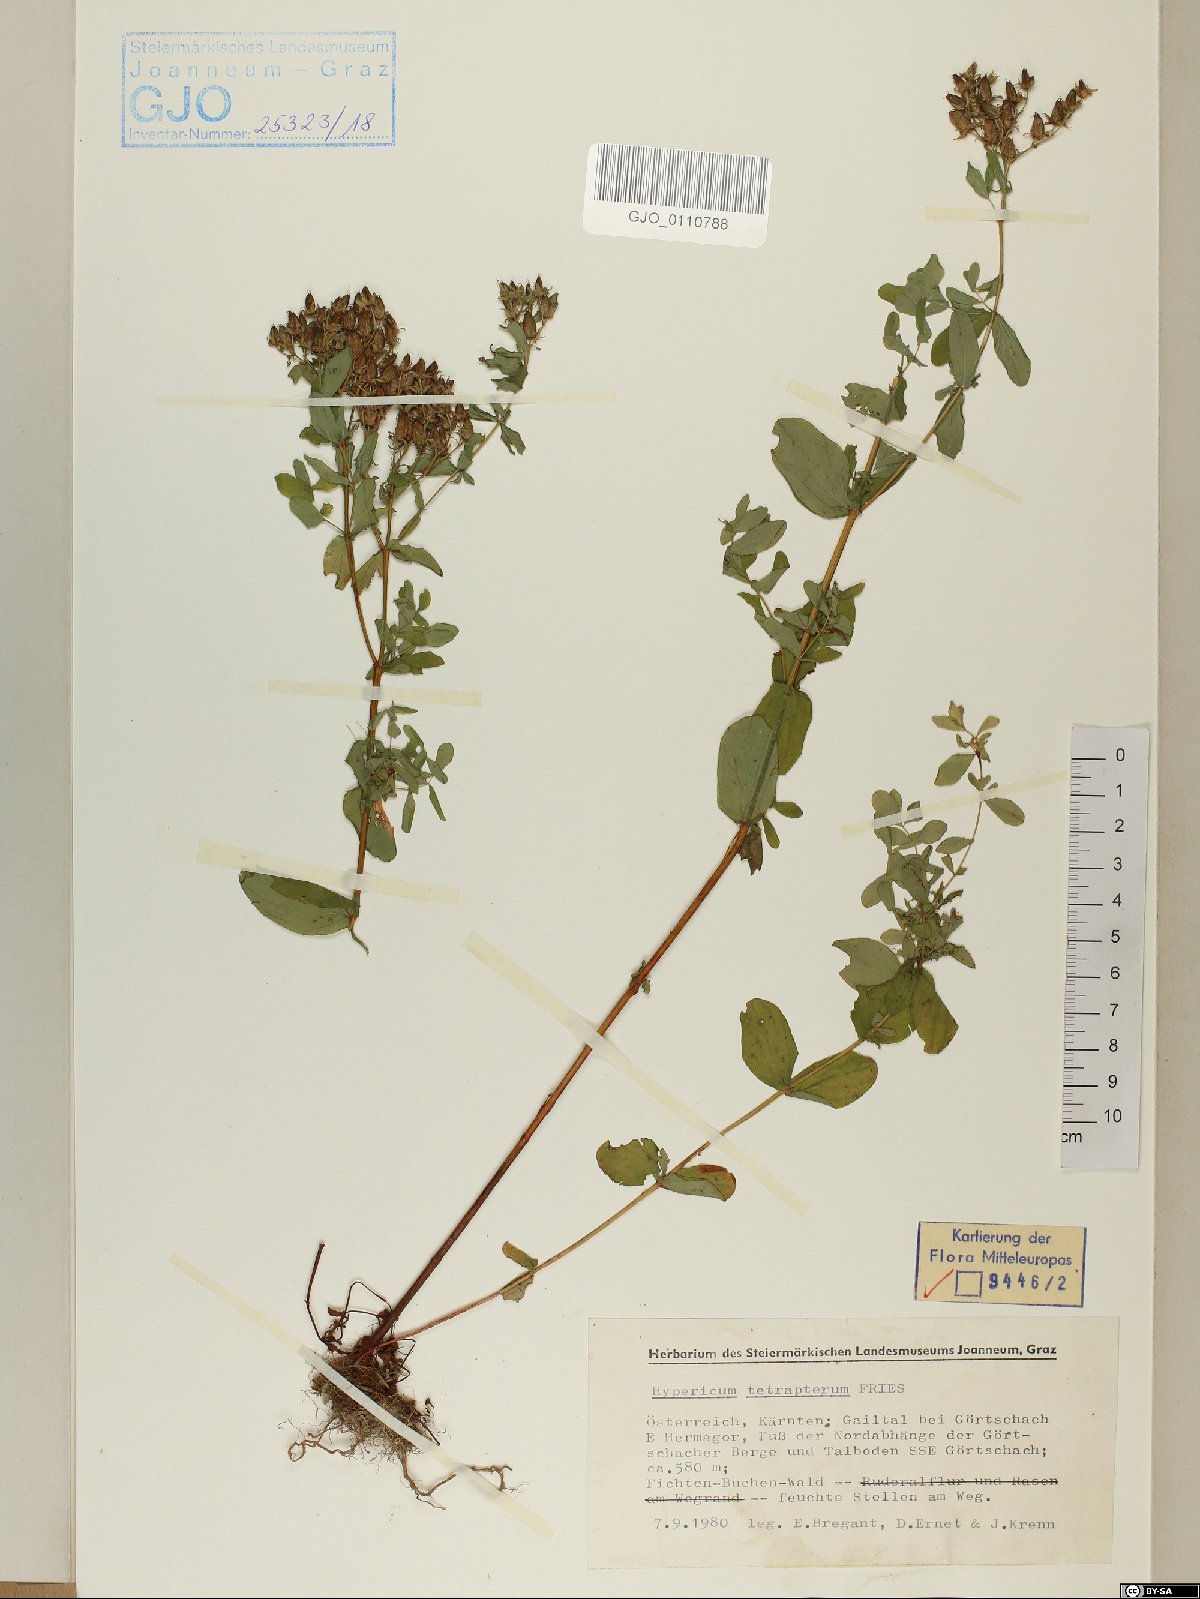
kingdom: Plantae
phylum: Tracheophyta
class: Magnoliopsida
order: Malpighiales
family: Hypericaceae
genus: Hypericum
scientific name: Hypericum tetrapterum
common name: Square-stalked st. john's-wort
